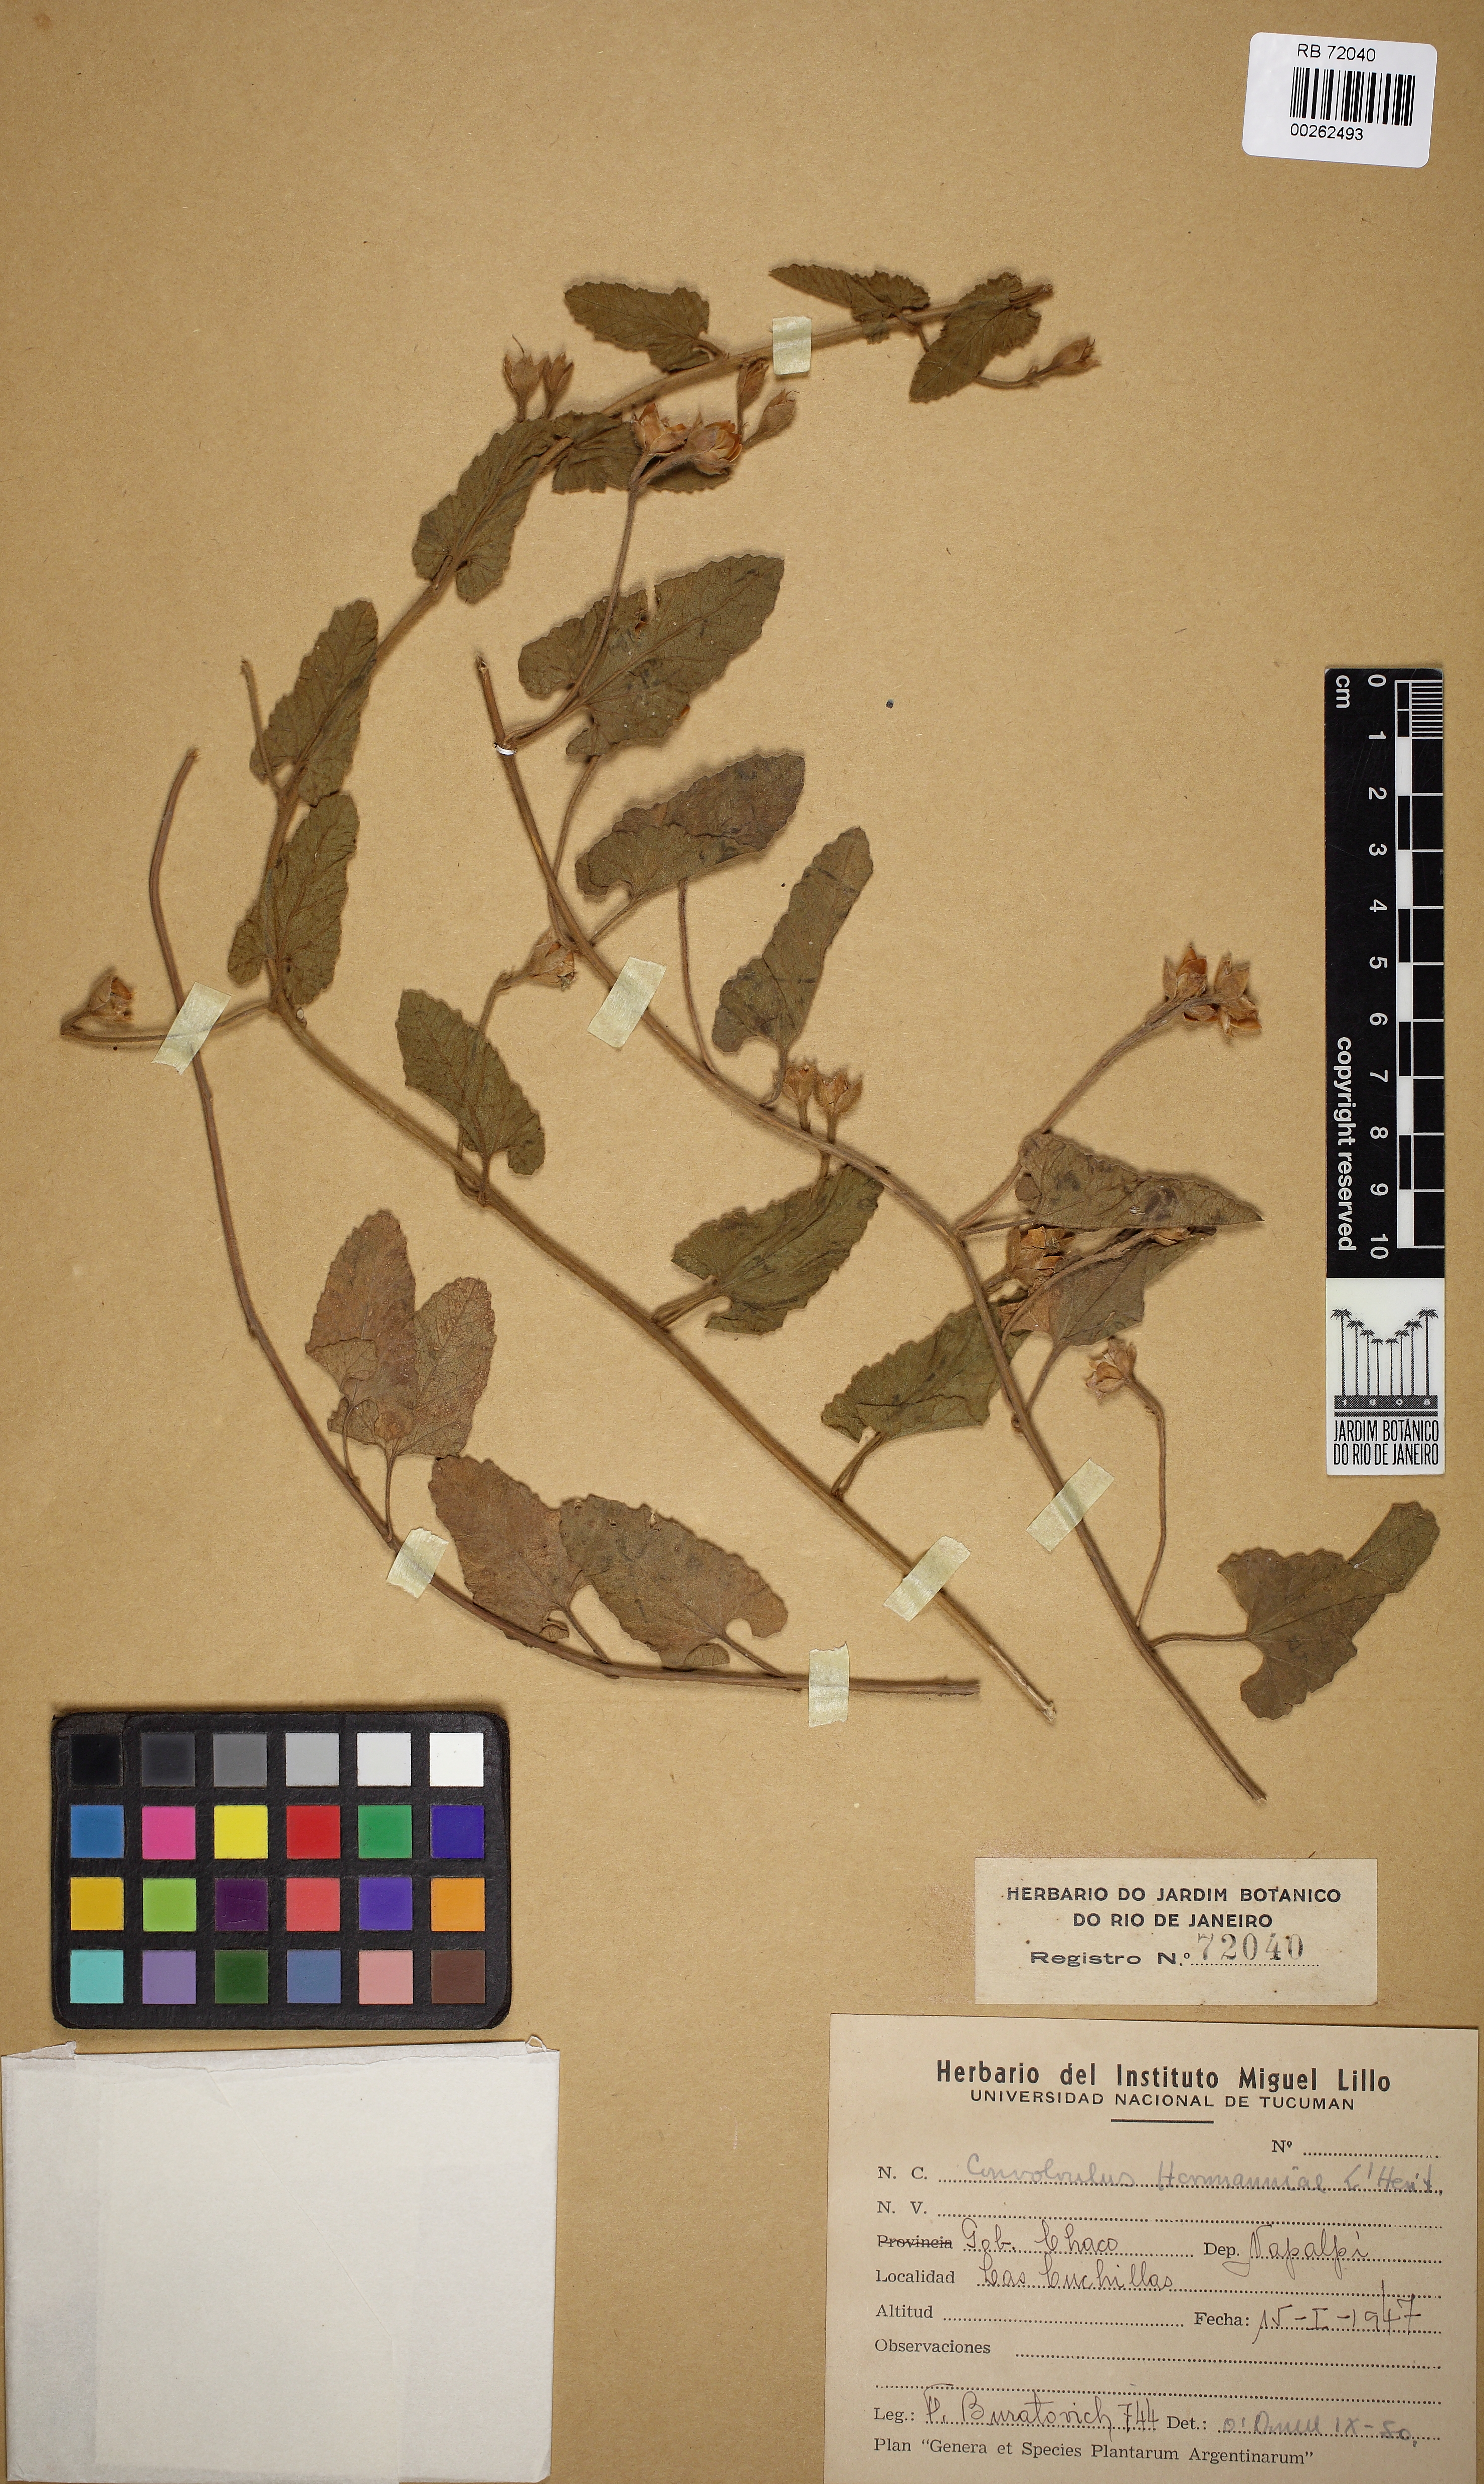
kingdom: Plantae
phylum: Tracheophyta
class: Magnoliopsida
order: Solanales
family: Convolvulaceae
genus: Convolvulus
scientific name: Convolvulus hermanniae
